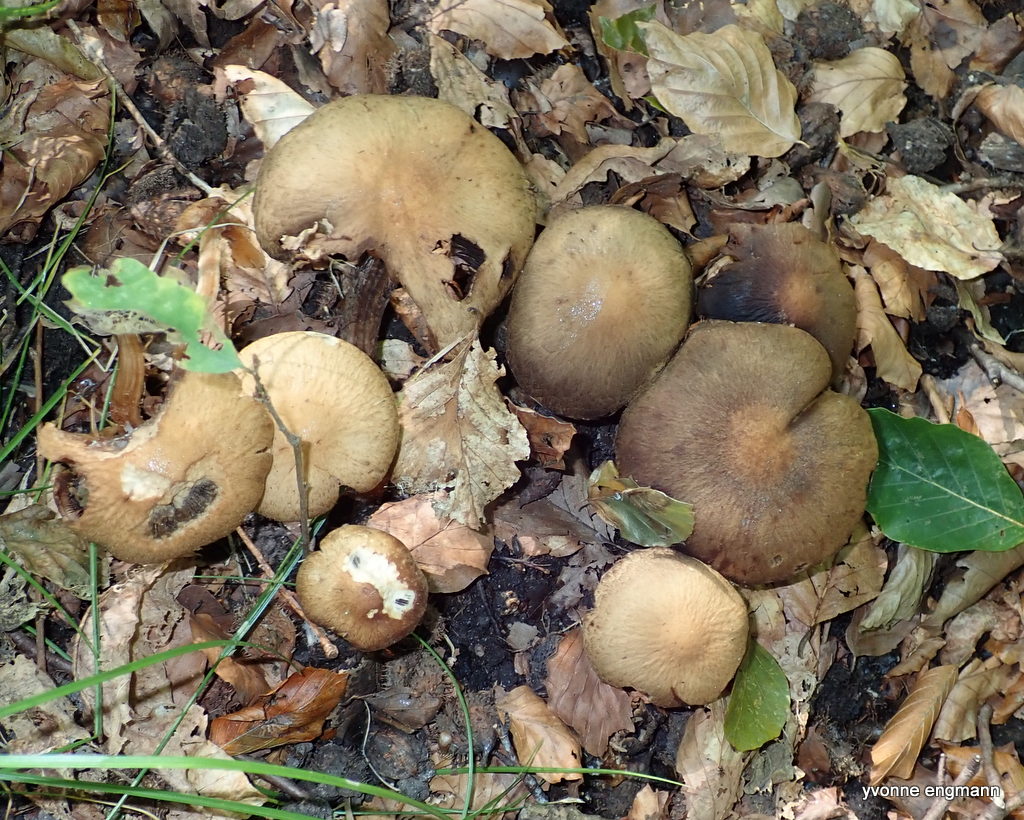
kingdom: Fungi
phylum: Basidiomycota
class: Agaricomycetes
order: Agaricales
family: Psathyrellaceae
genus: Lacrymaria
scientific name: Lacrymaria lacrymabunda
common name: grædende mørkhat
